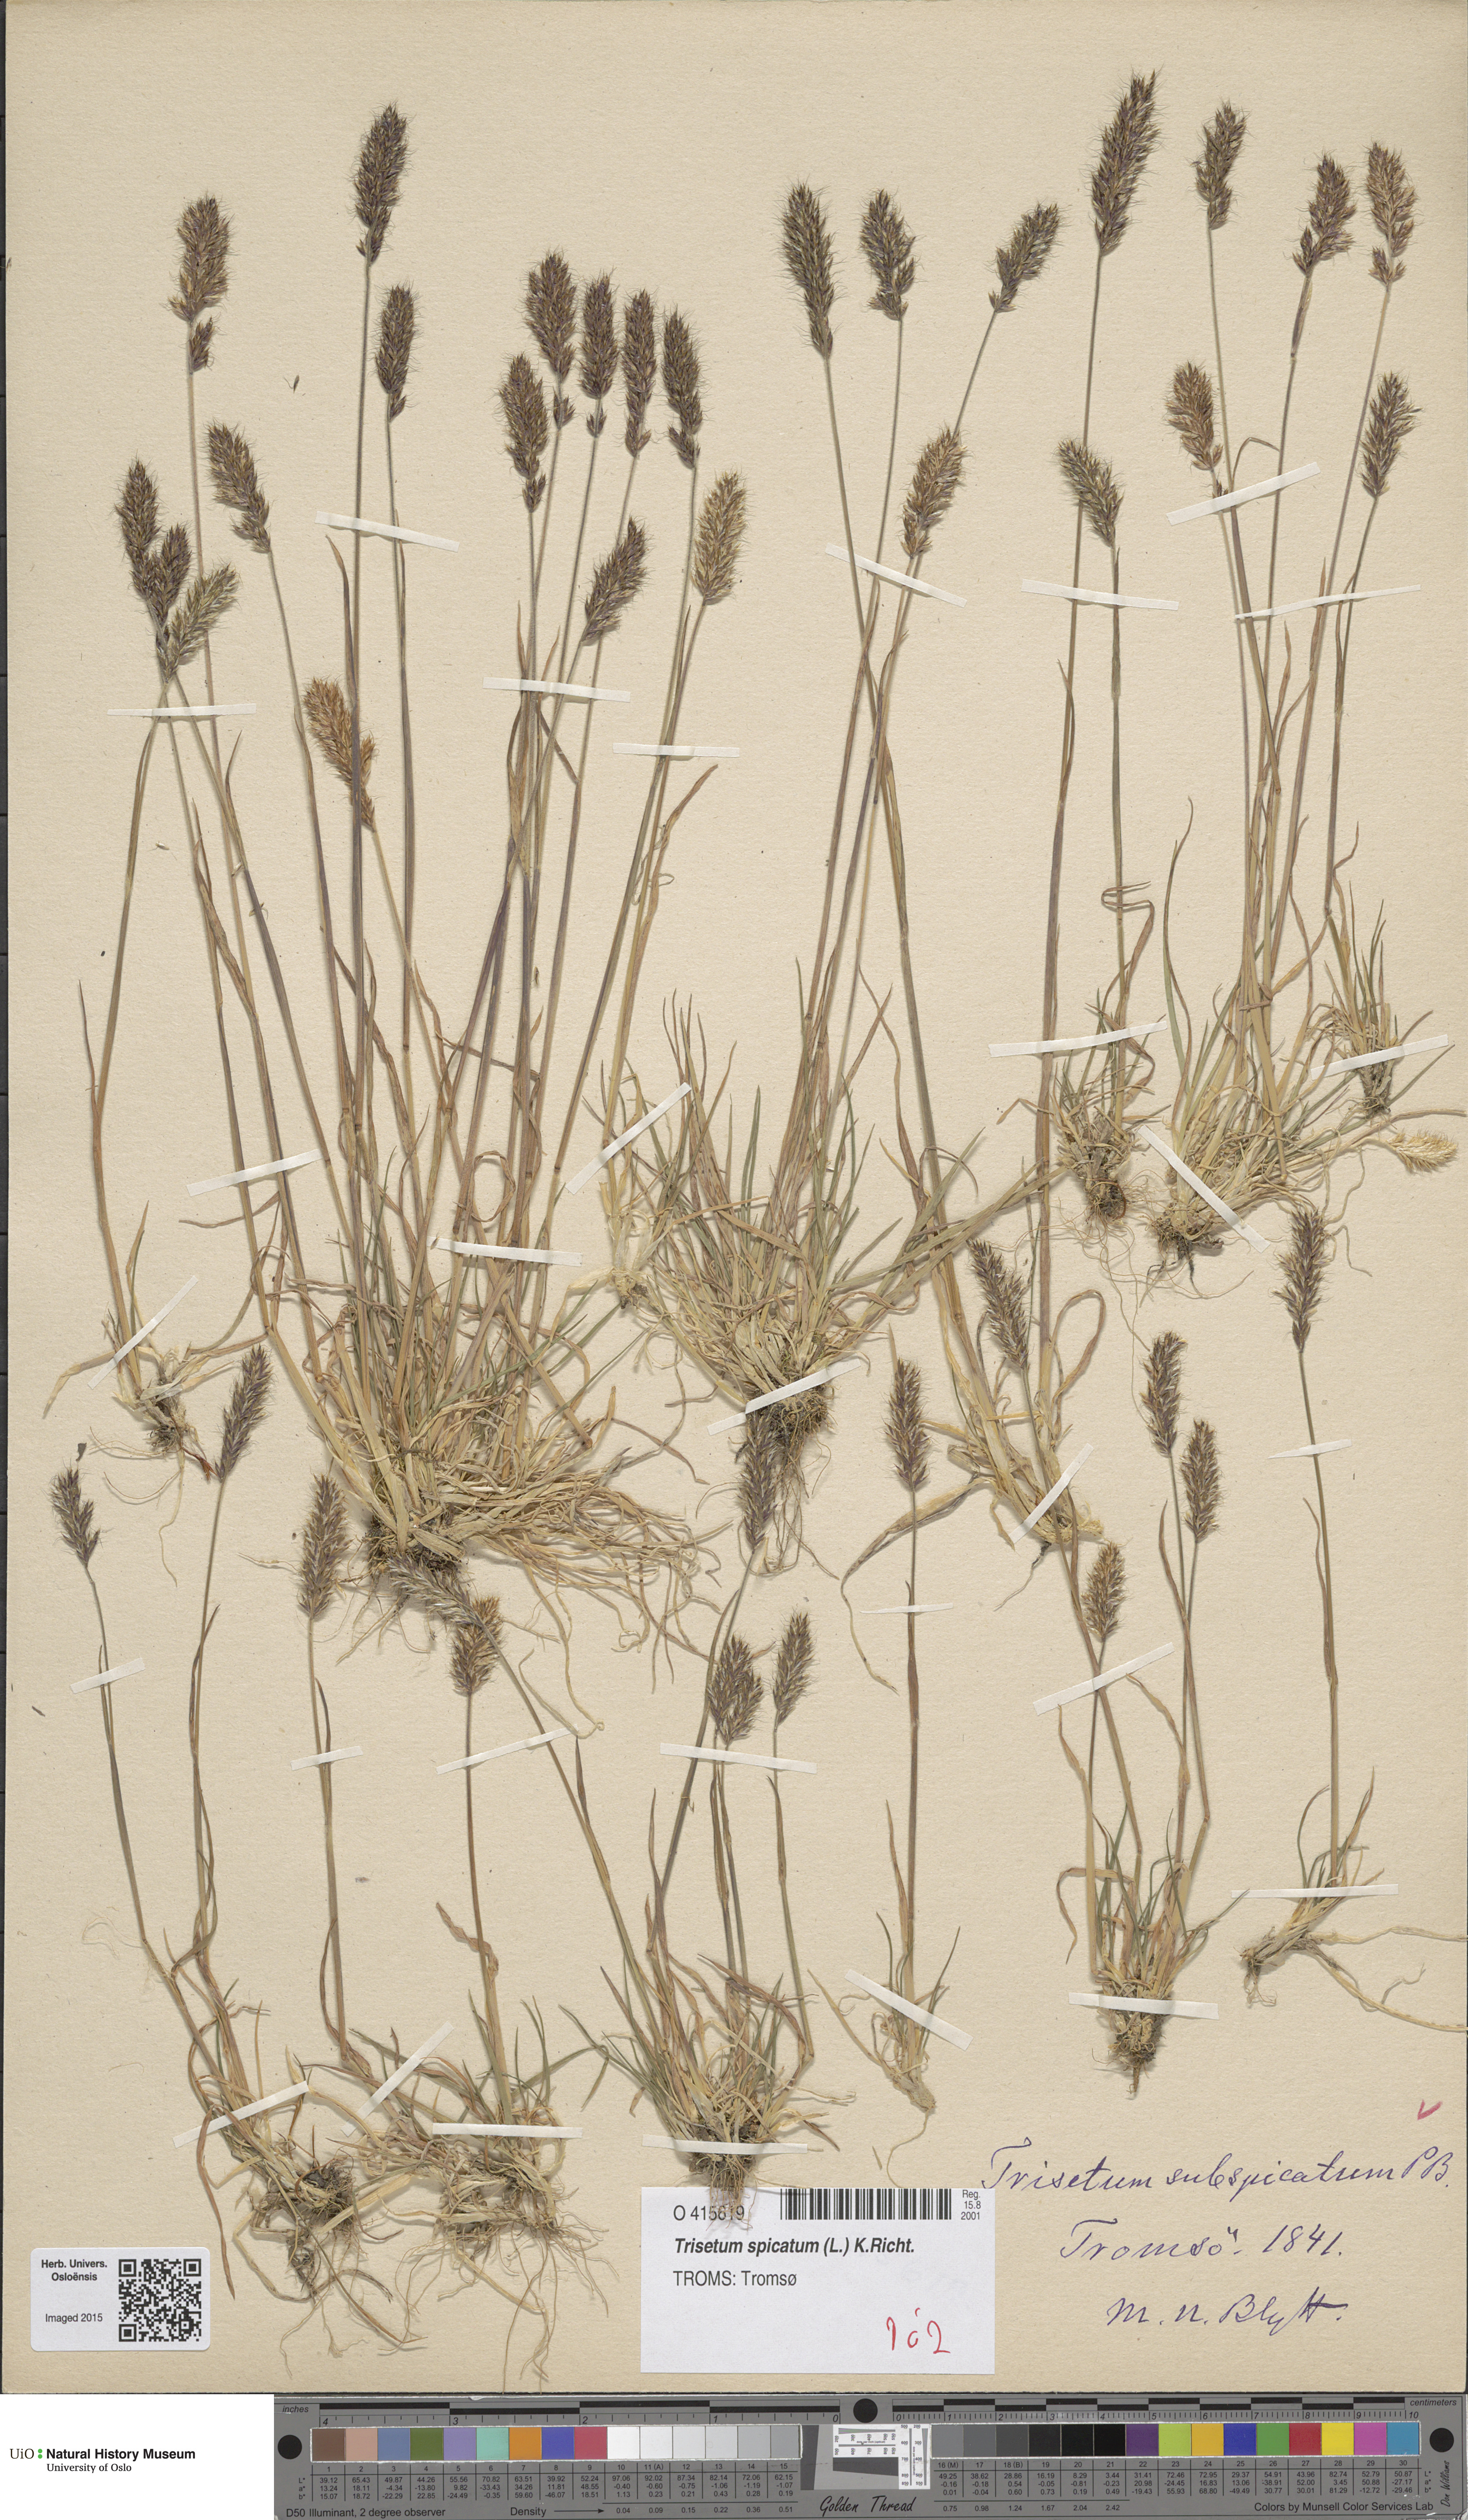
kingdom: Plantae
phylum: Tracheophyta
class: Liliopsida
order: Poales
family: Poaceae
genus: Koeleria
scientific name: Koeleria spicata
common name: Mountain trisetum
